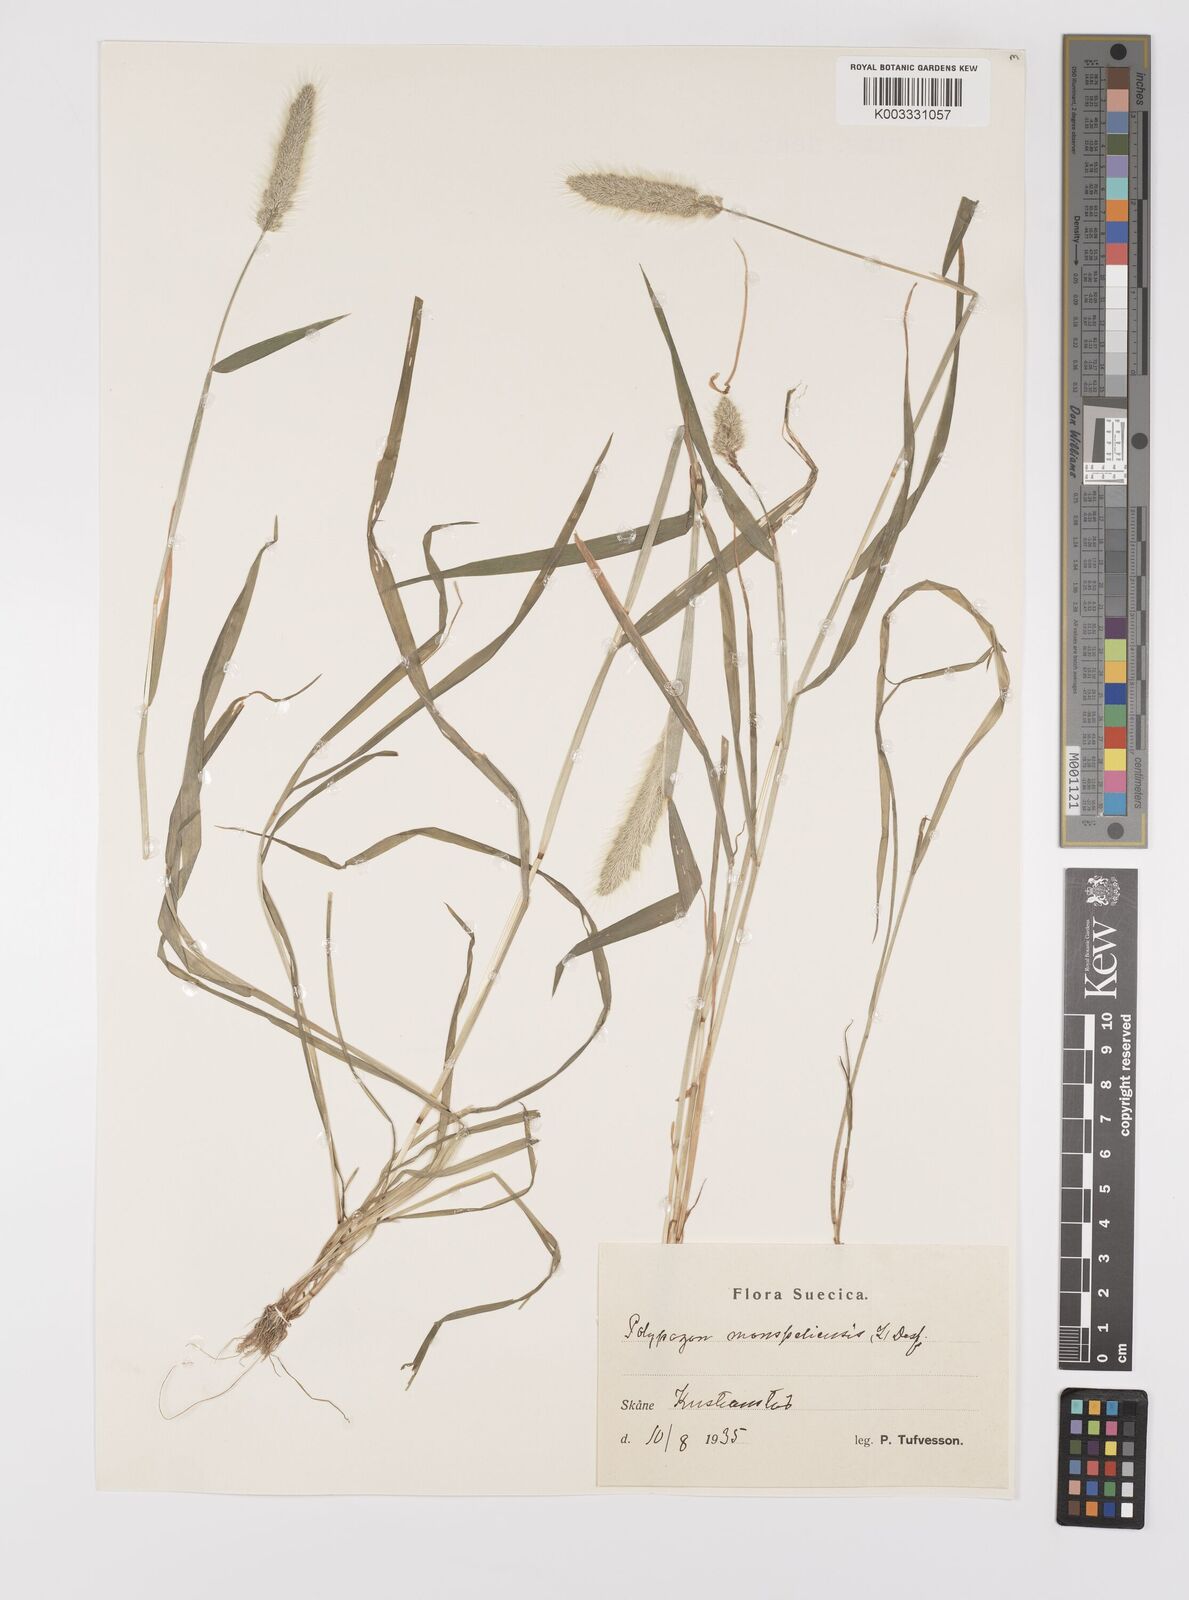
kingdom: Plantae
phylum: Tracheophyta
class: Liliopsida
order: Poales
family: Poaceae
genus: Polypogon
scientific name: Polypogon monspeliensis
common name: Annual rabbitsfoot grass
